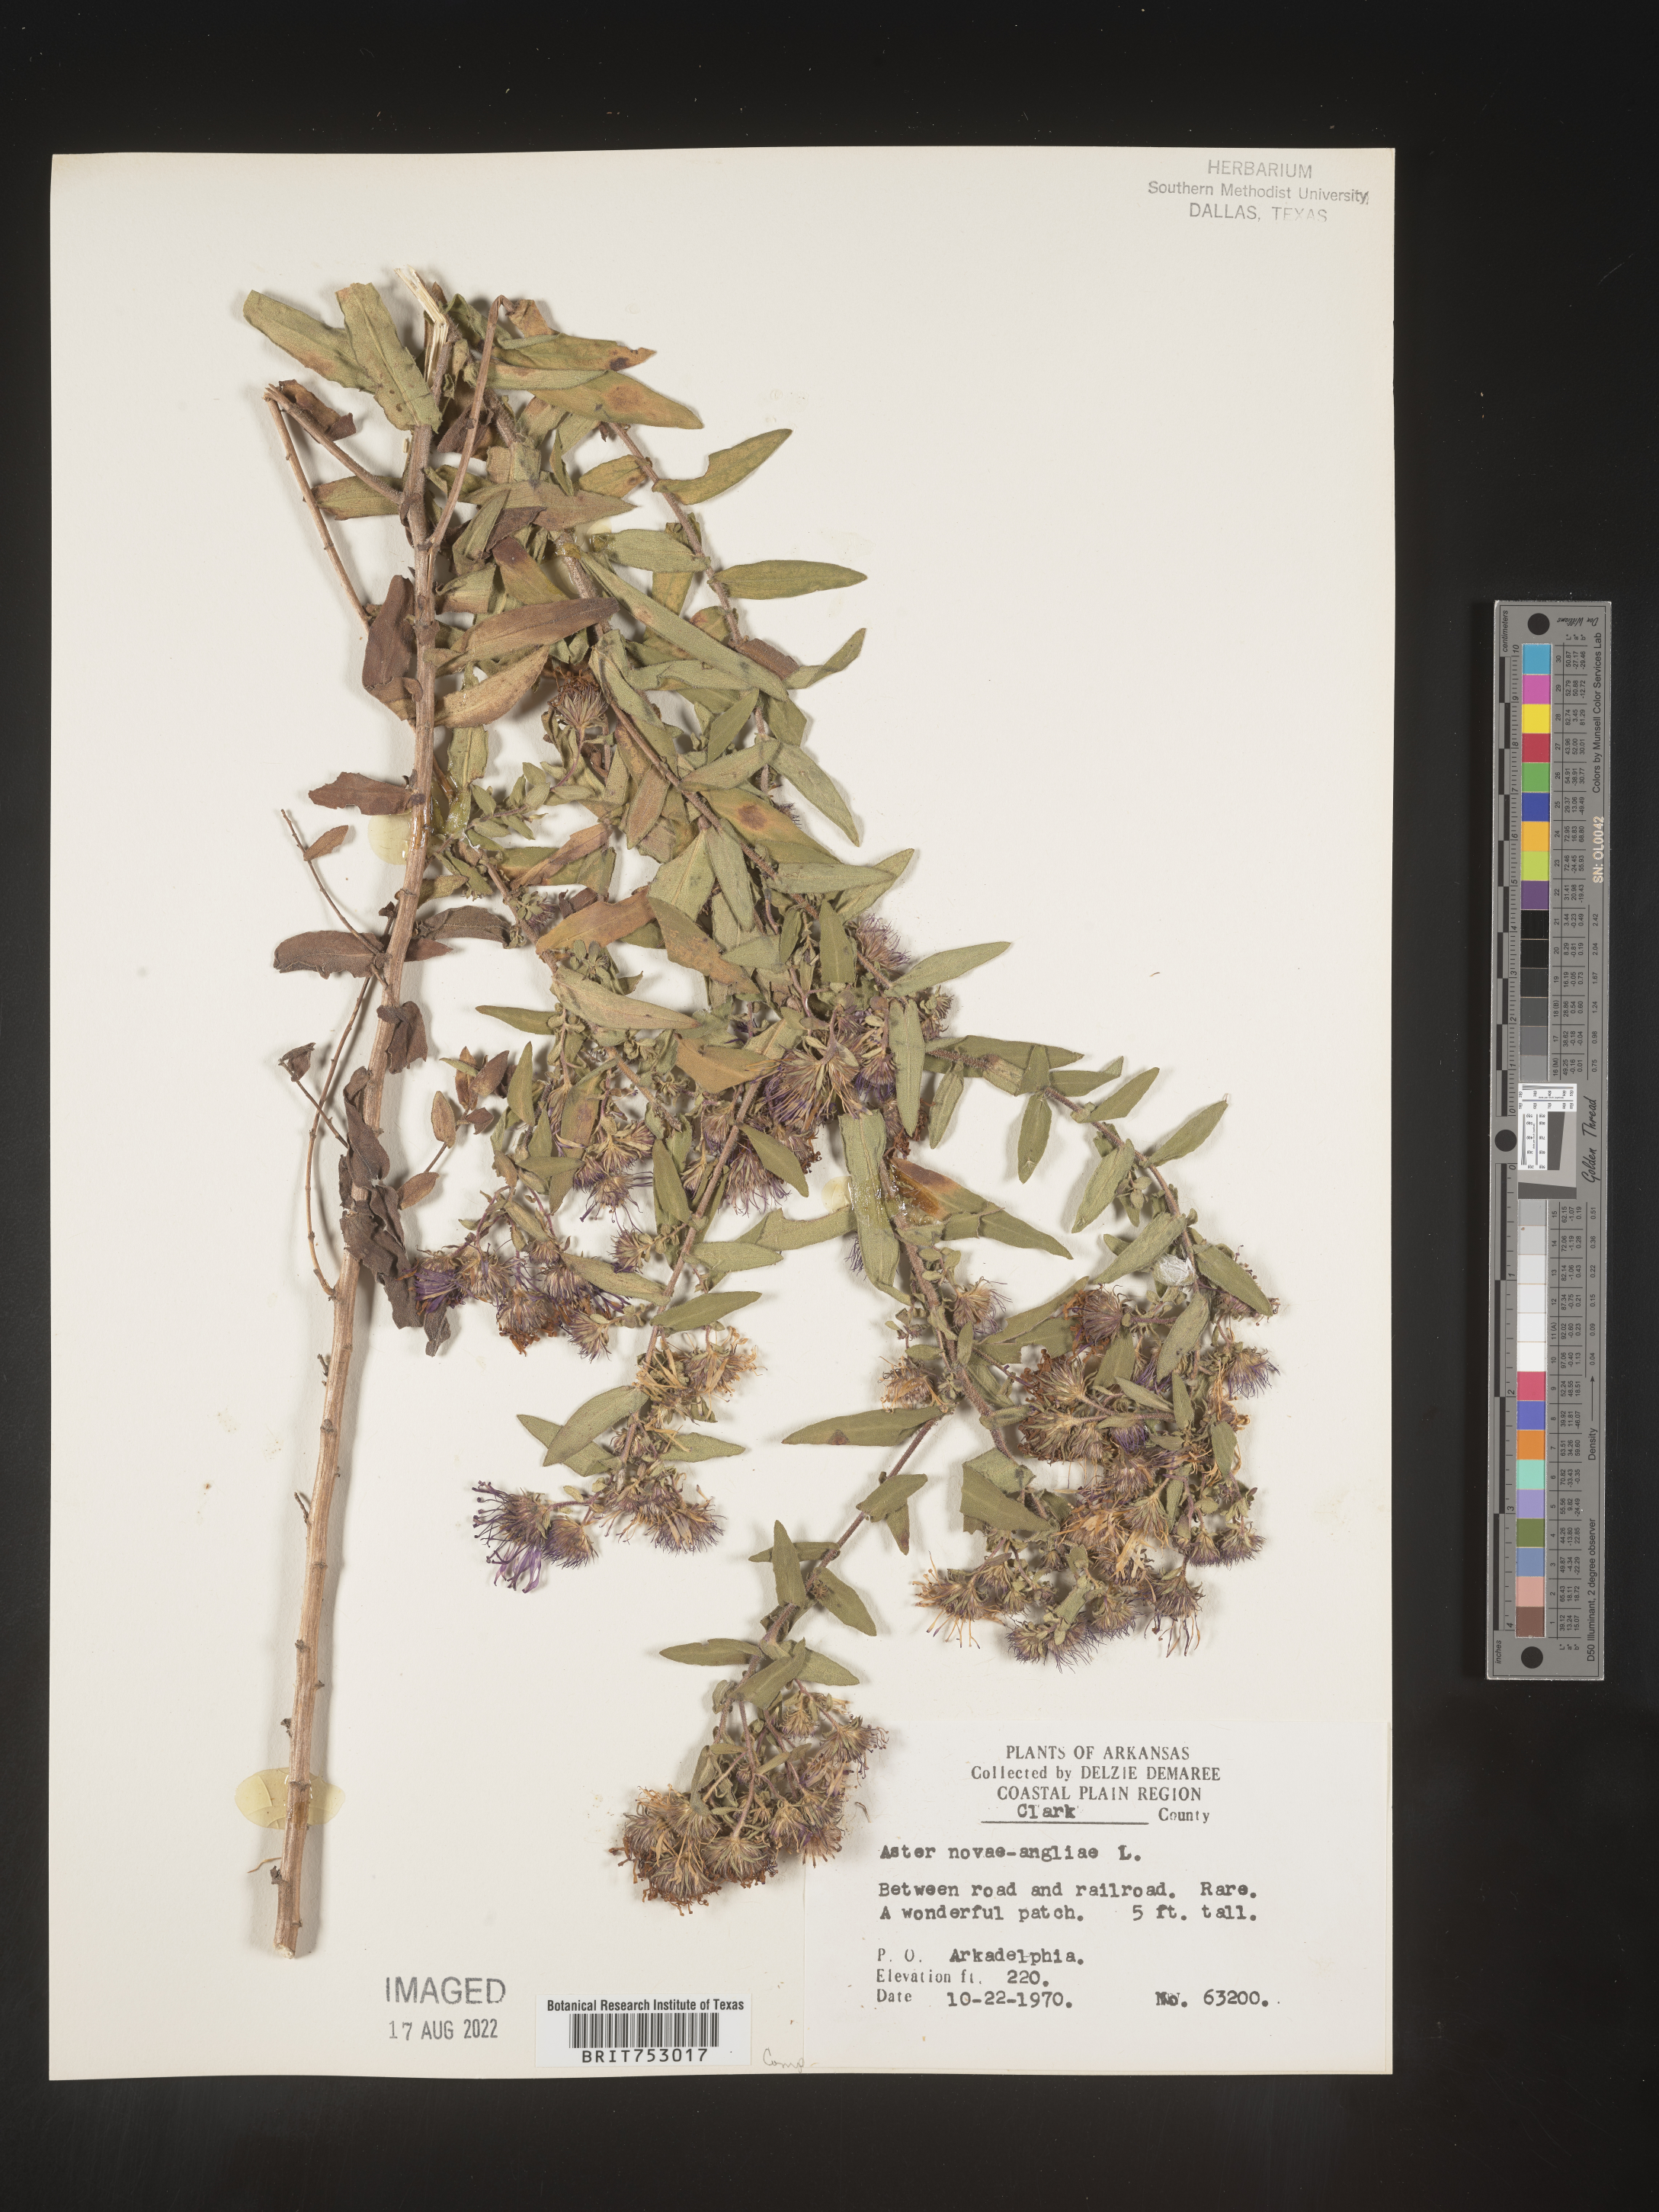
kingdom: Plantae
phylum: Tracheophyta
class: Magnoliopsida
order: Asterales
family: Asteraceae
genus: Symphyotrichum
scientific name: Symphyotrichum novae-angliae
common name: Michaelmas daisy
